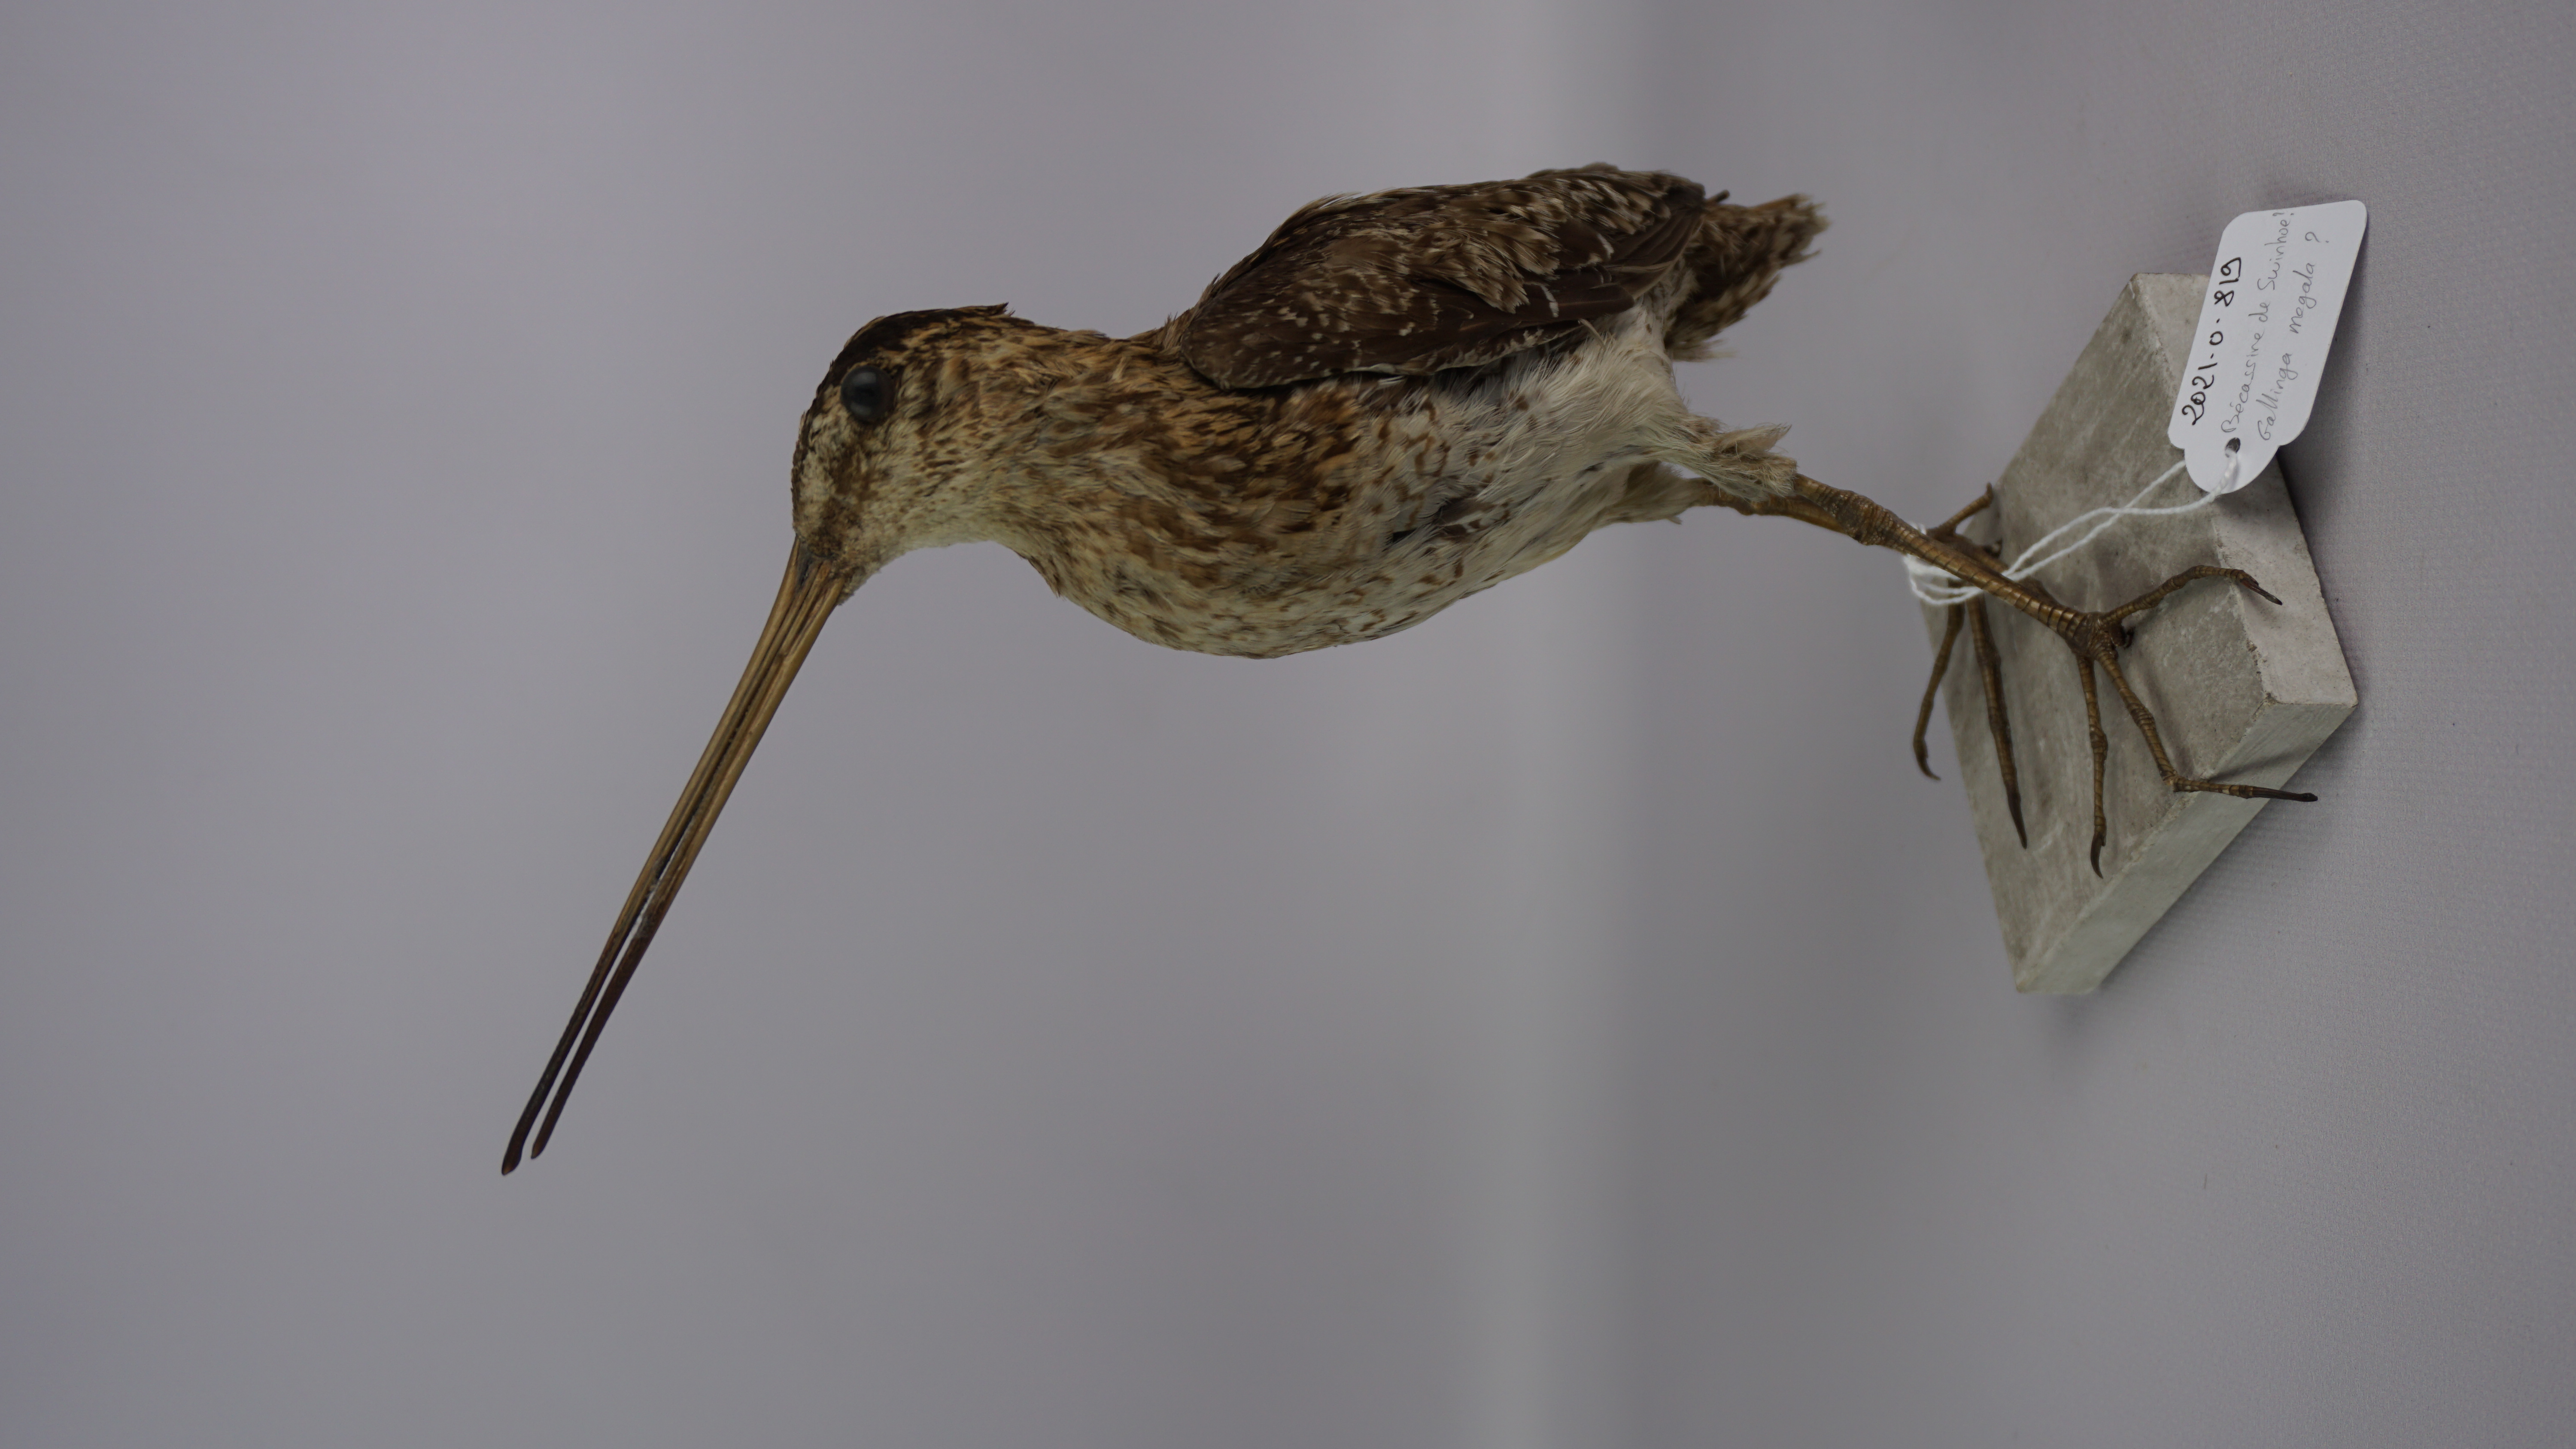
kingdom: Animalia
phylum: Chordata
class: Aves
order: Charadriiformes
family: Scolopacidae
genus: Gallinago
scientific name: Gallinago megala
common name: Swinhoe's snipe
